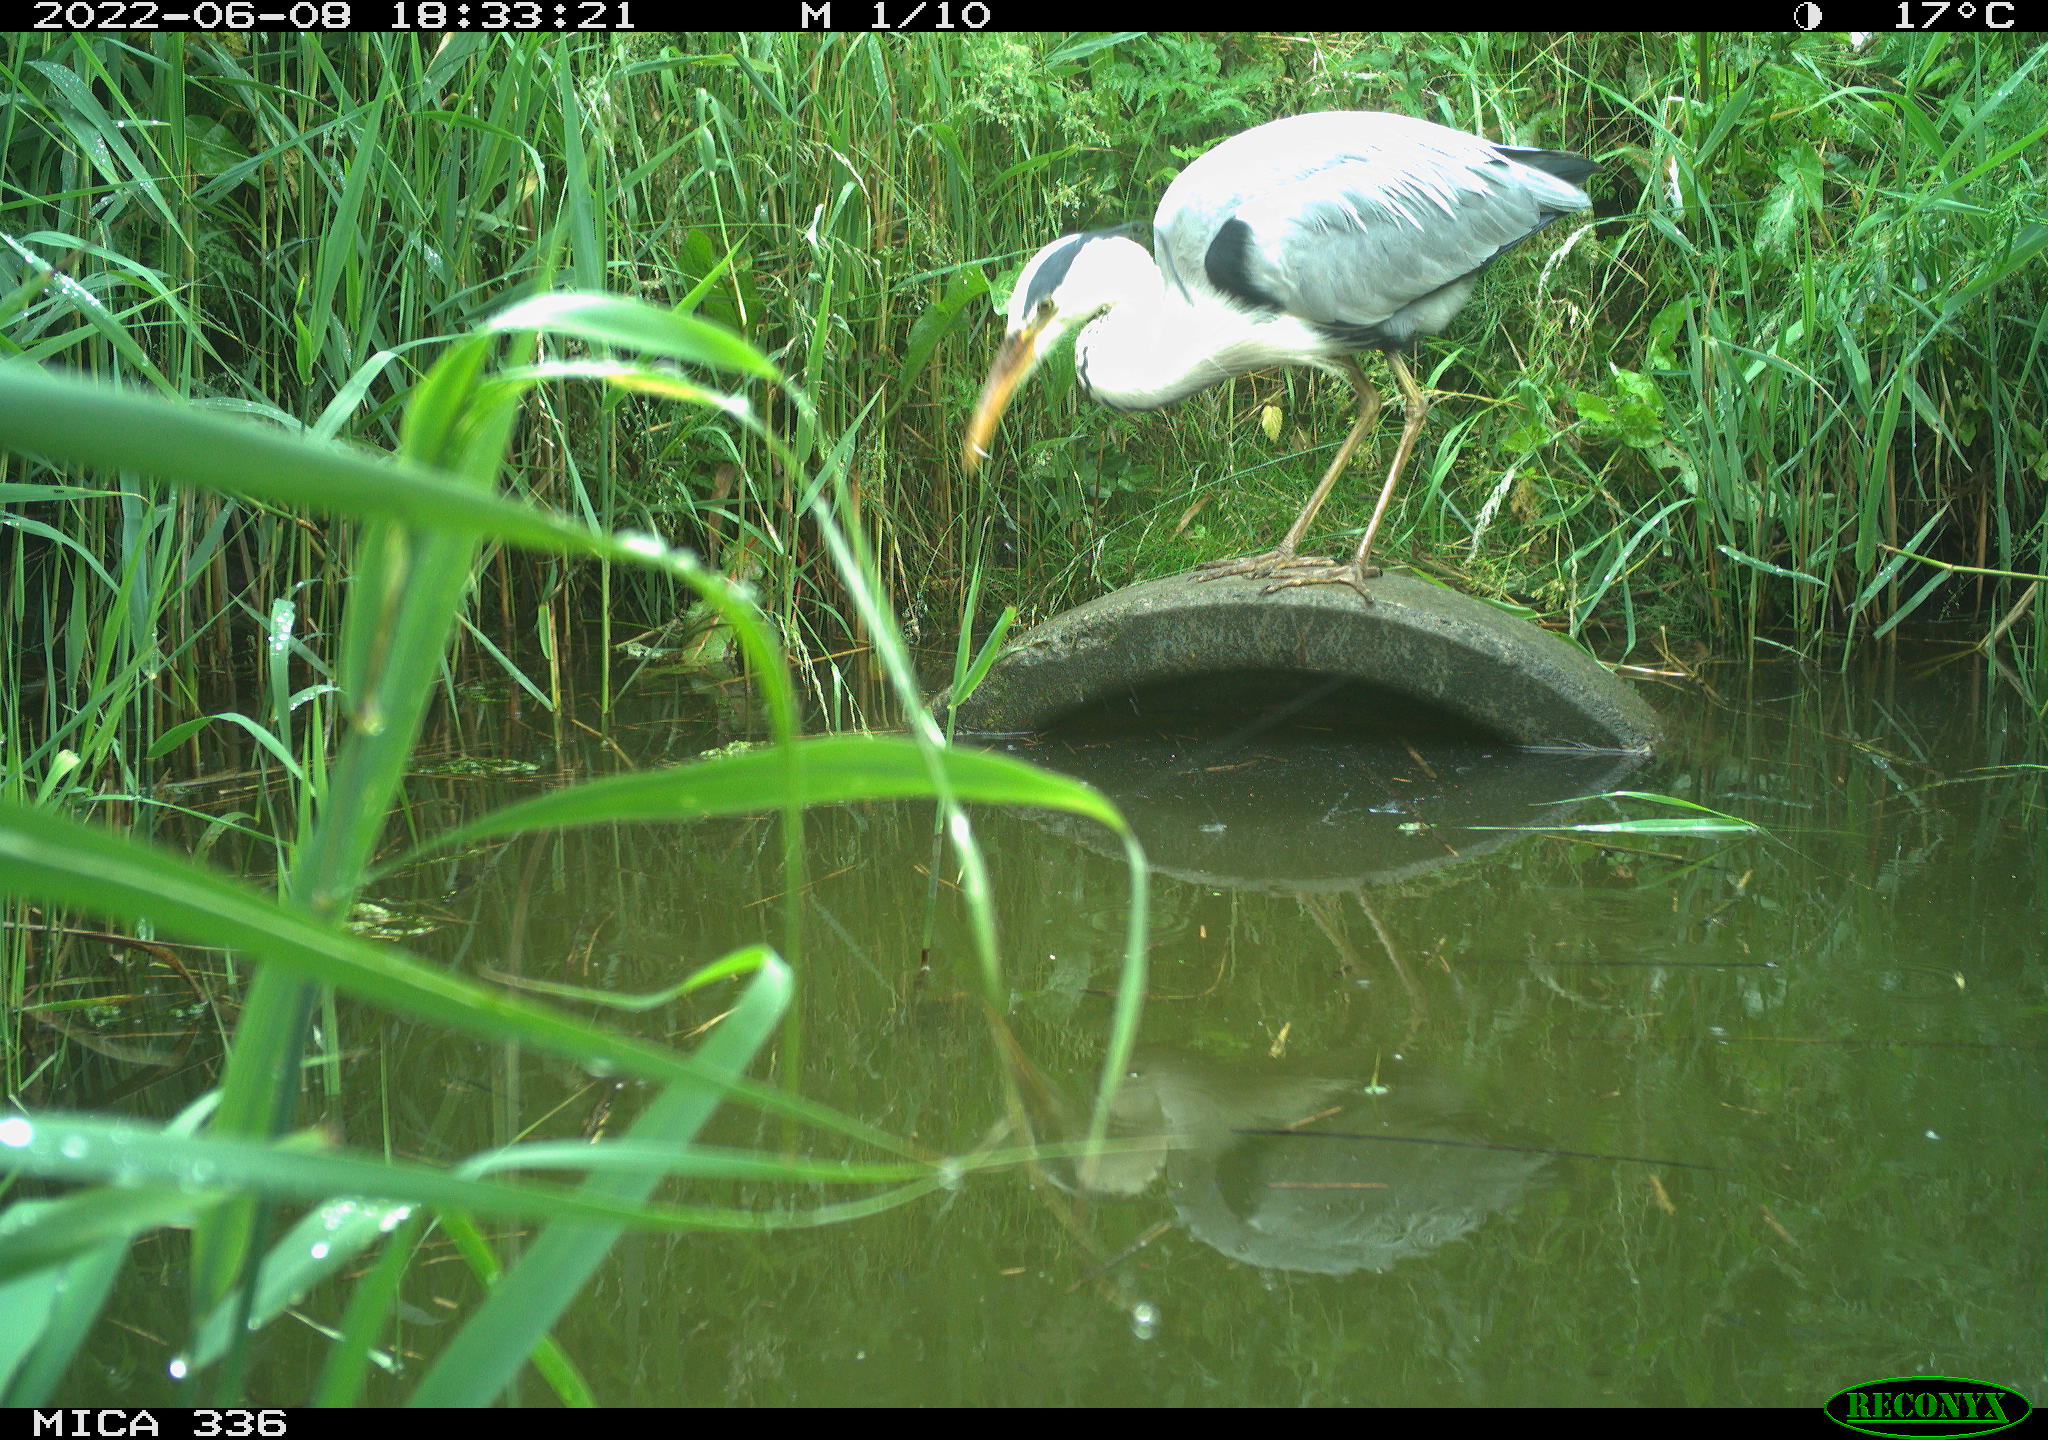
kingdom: Animalia
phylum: Chordata
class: Aves
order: Pelecaniformes
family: Ardeidae
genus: Ardea
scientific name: Ardea
